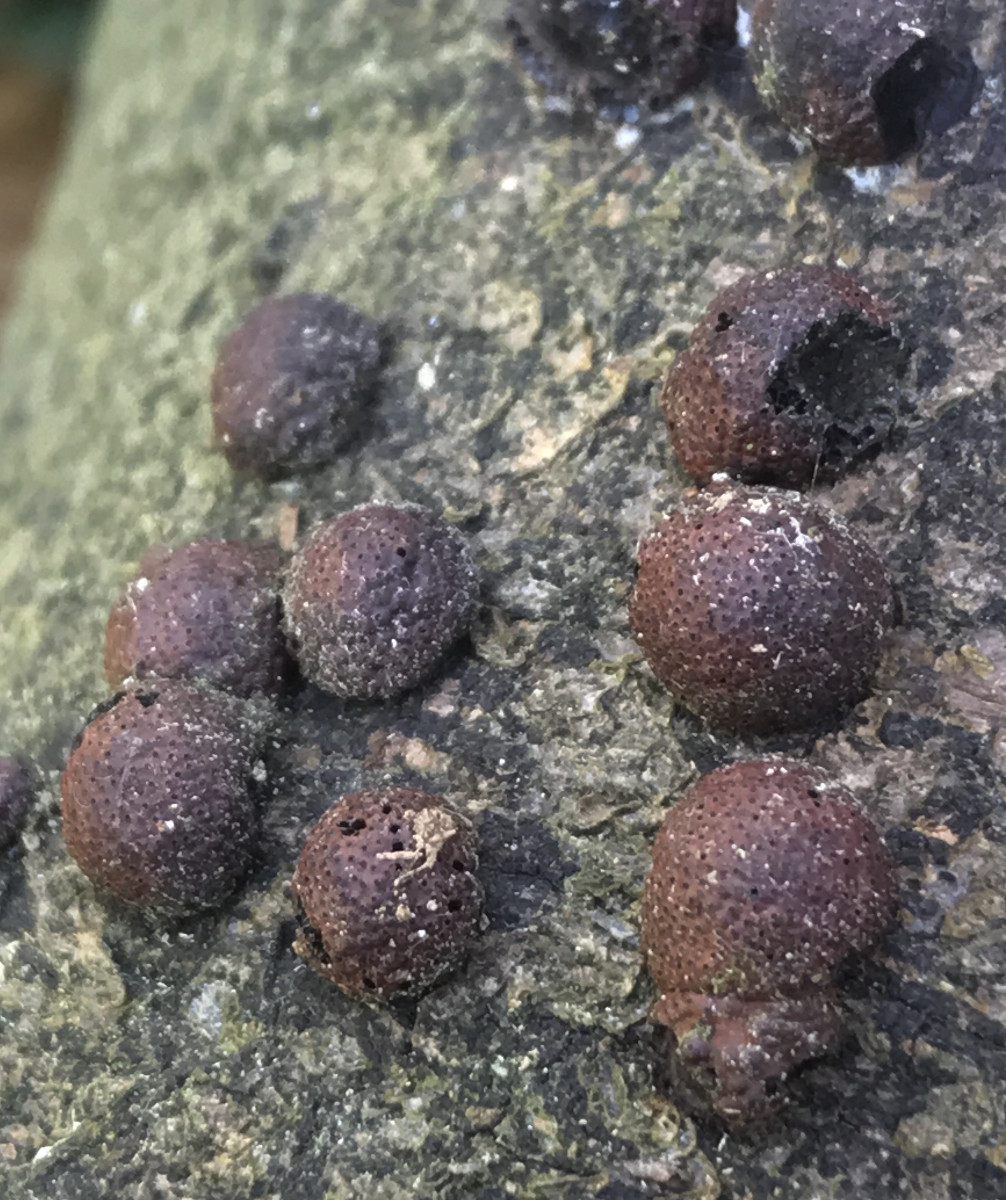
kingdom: Fungi
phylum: Ascomycota
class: Sordariomycetes
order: Xylariales
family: Hypoxylaceae
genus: Hypoxylon
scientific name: Hypoxylon fragiforme
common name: kuljordbær
